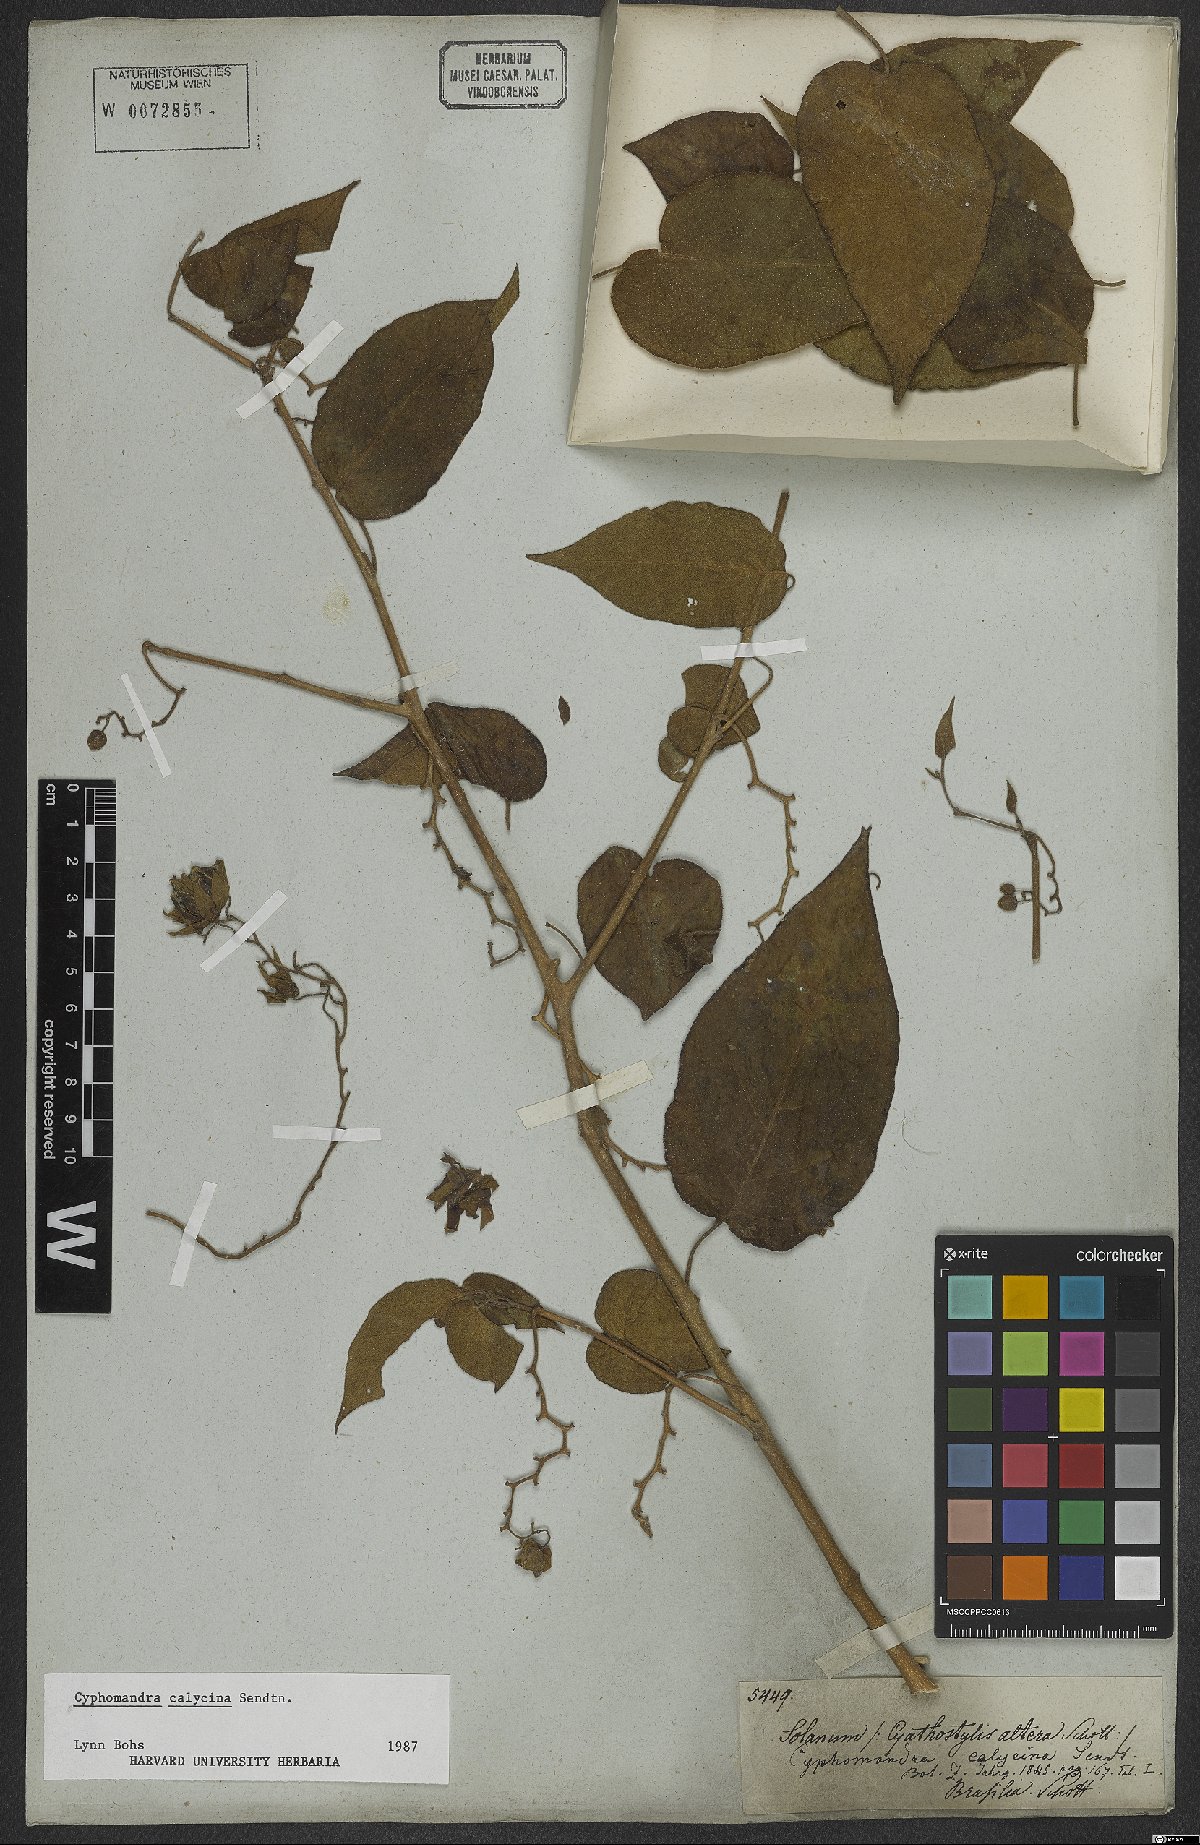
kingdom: Plantae
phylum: Tracheophyta
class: Magnoliopsida
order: Solanales
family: Solanaceae
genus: Solanum
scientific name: Solanum latiflorum
